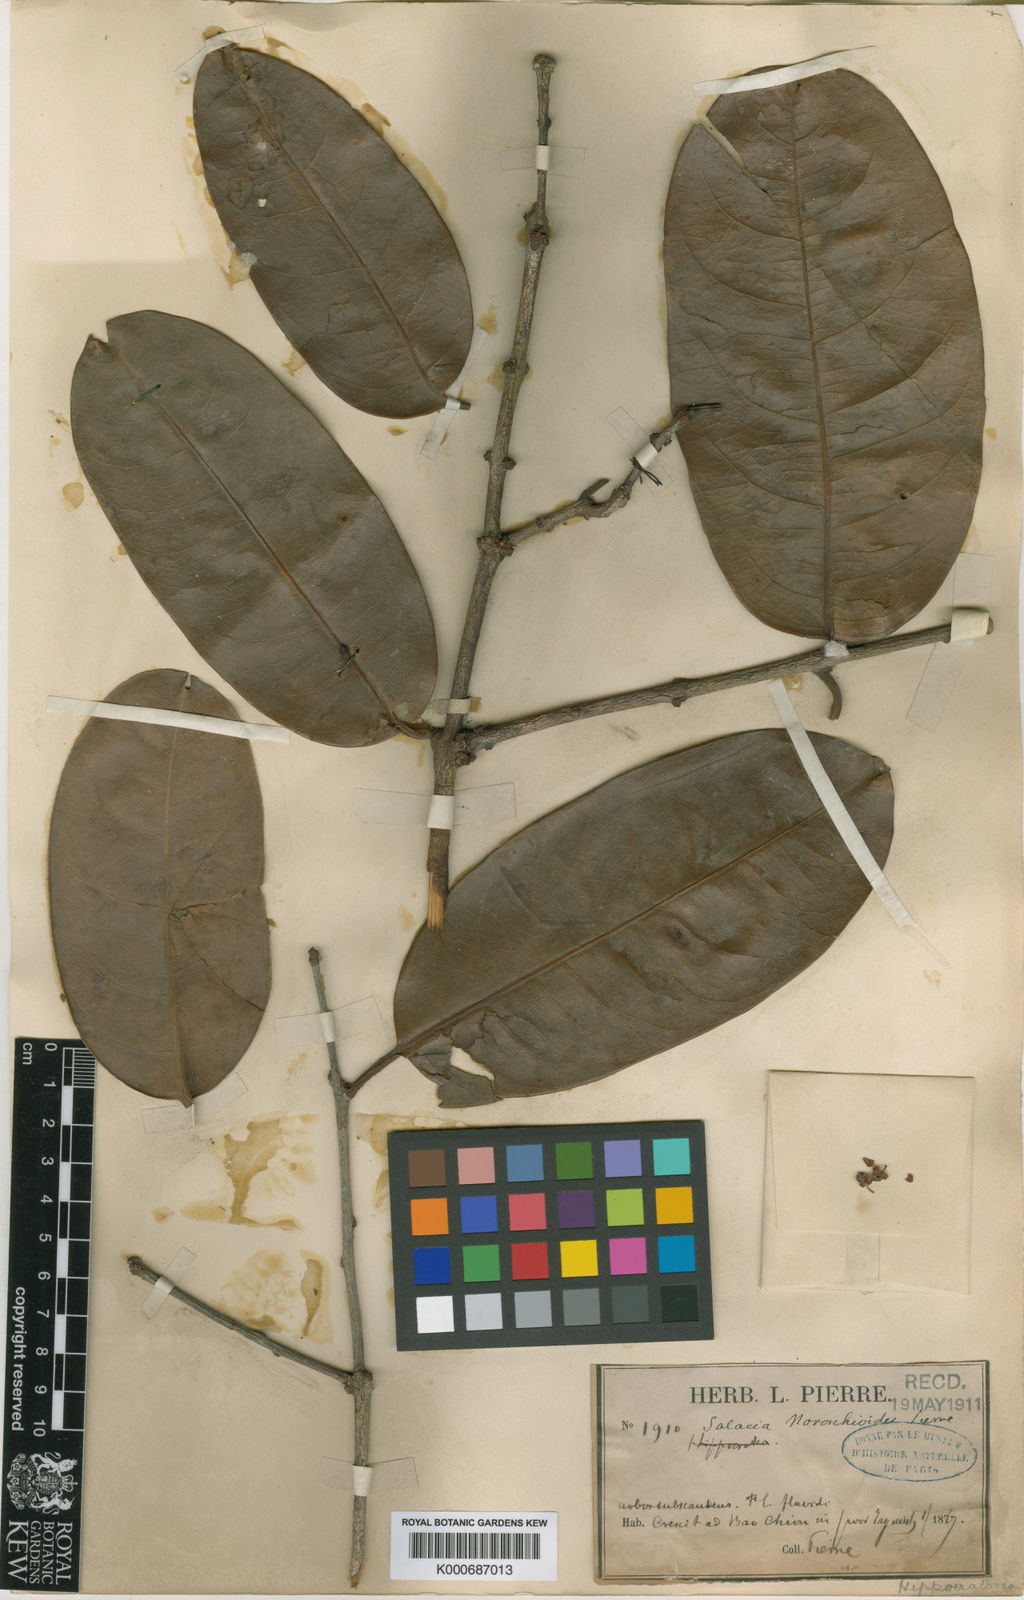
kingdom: Plantae
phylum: Tracheophyta
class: Magnoliopsida
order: Celastrales
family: Celastraceae
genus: Salacia
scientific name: Salacia noronhioides
